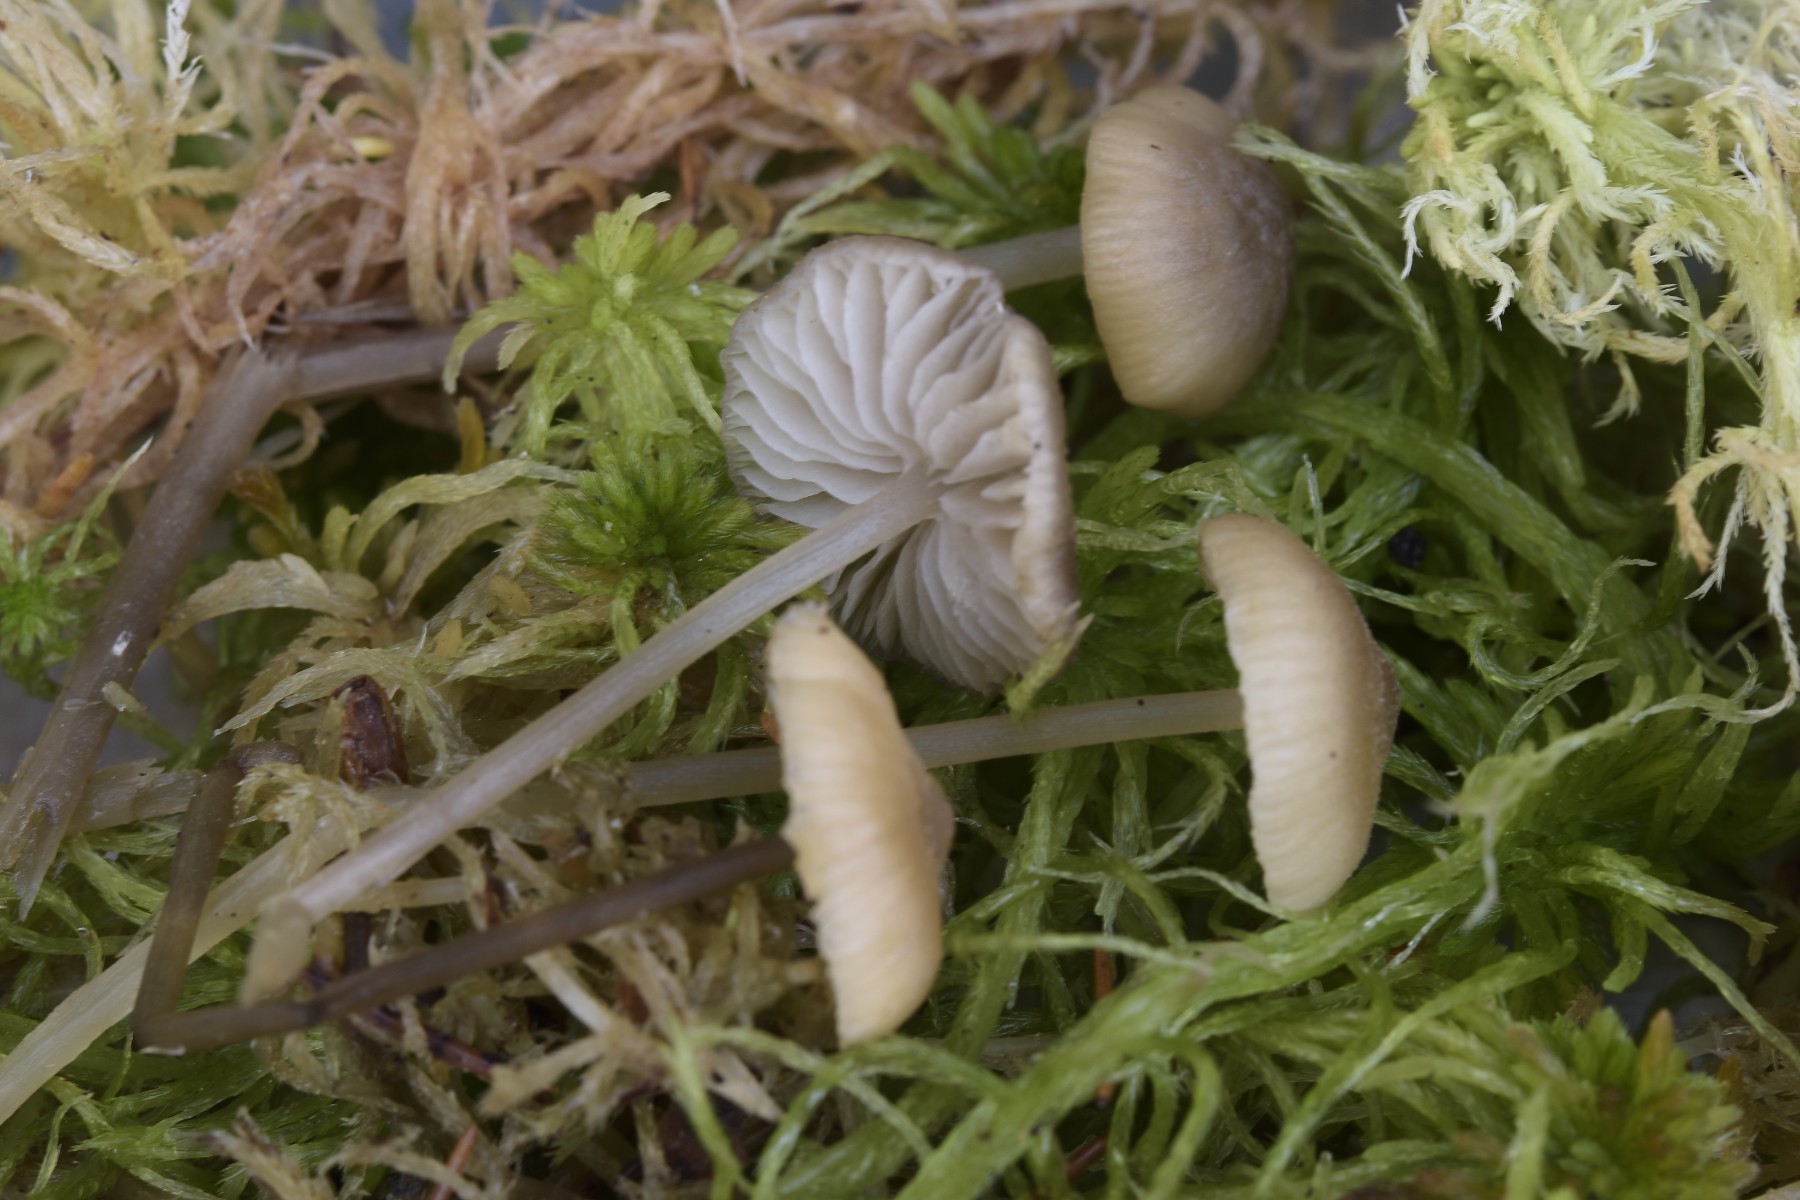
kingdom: Fungi
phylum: Basidiomycota
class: Agaricomycetes
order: Agaricales
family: Lyophyllaceae
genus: Sphagnurus
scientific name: Sphagnurus paluster
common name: tørvemos-gråblad
